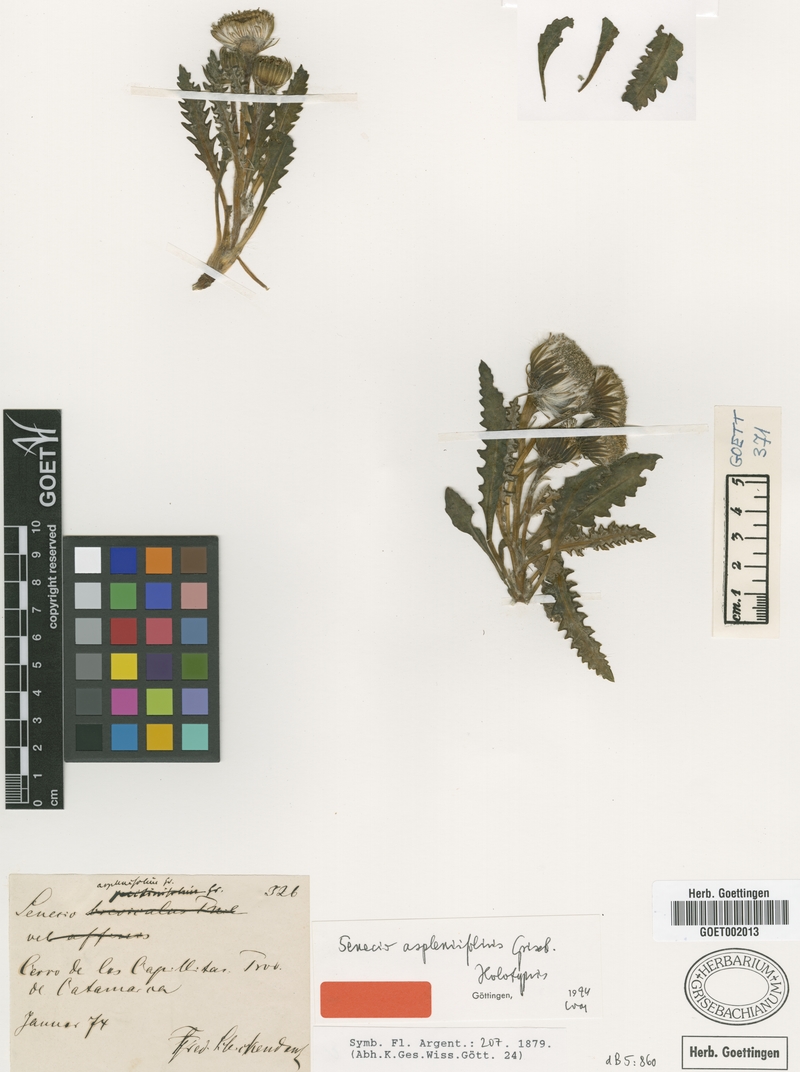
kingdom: Plantae
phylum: Tracheophyta
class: Magnoliopsida
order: Asterales
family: Asteraceae
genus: Senecio
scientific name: Senecio asplenifolius
